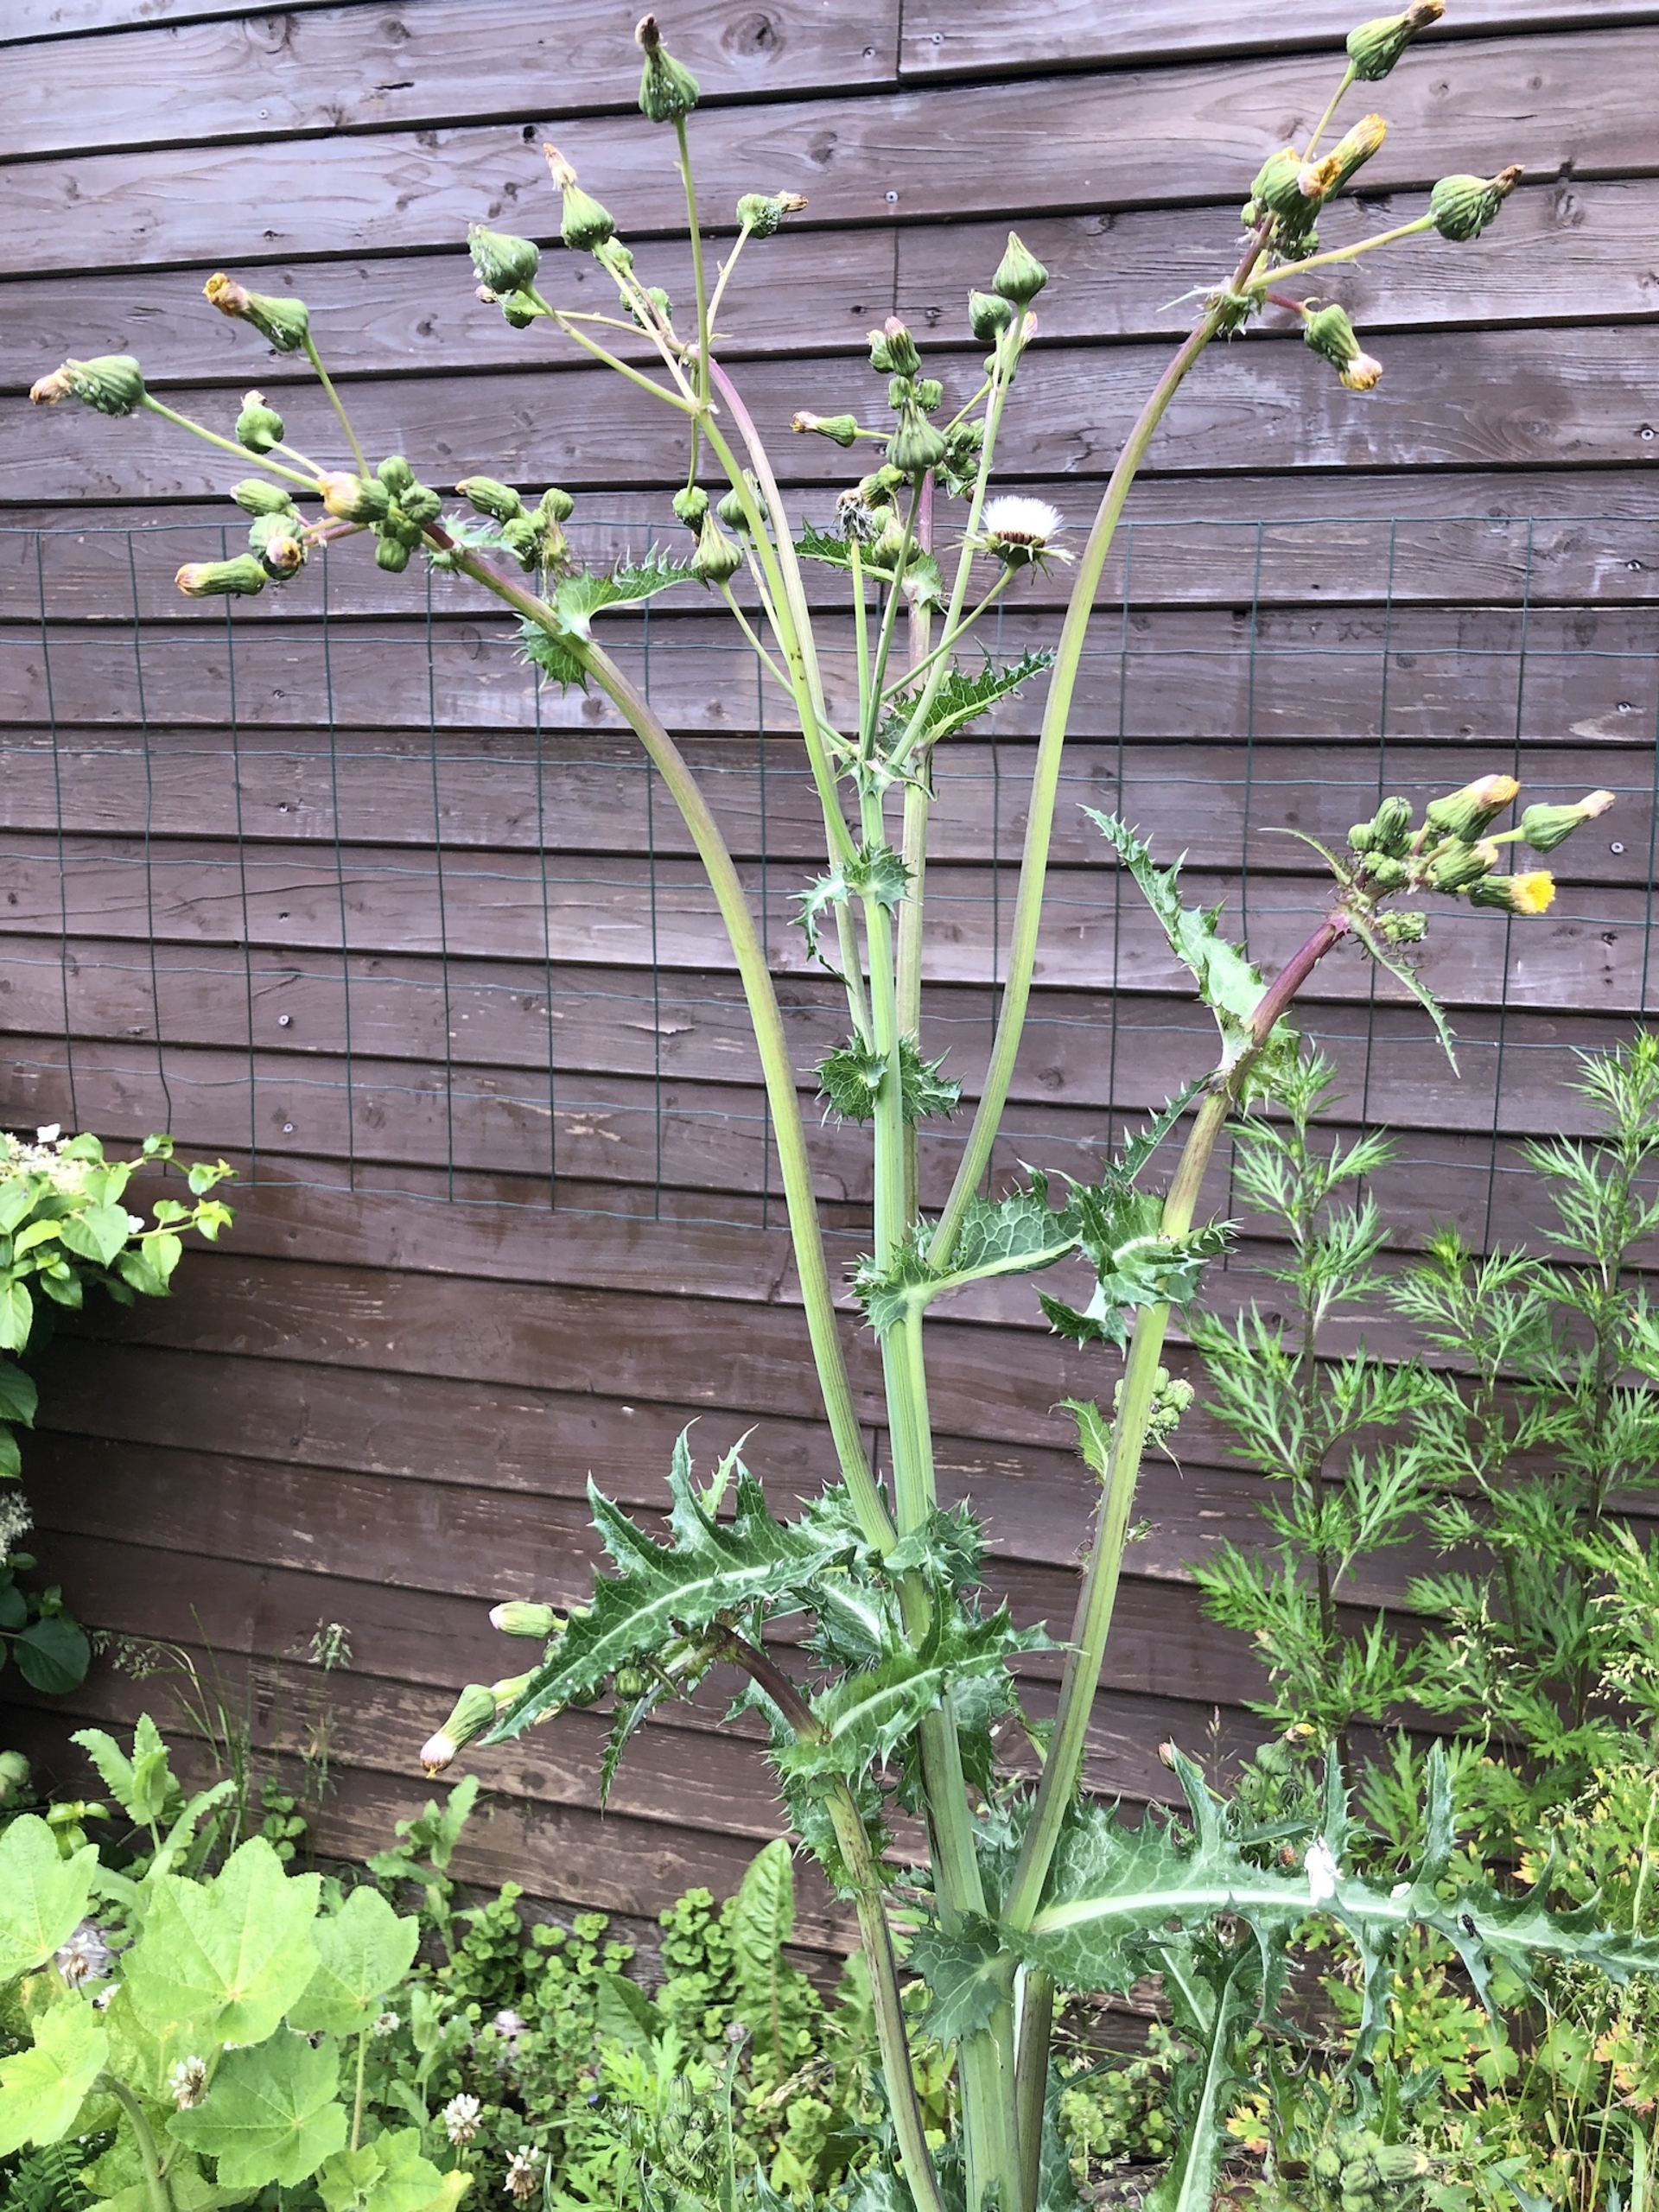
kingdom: Plantae
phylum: Tracheophyta
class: Magnoliopsida
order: Asterales
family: Asteraceae
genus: Sonchus
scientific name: Sonchus asper
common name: Ru svinemælk
